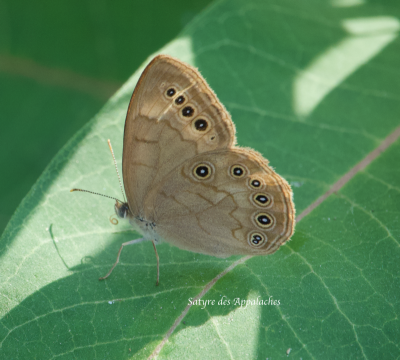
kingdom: Animalia
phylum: Arthropoda
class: Insecta
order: Lepidoptera
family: Nymphalidae
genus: Lethe
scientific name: Lethe eurydice
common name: Eyed Brown
